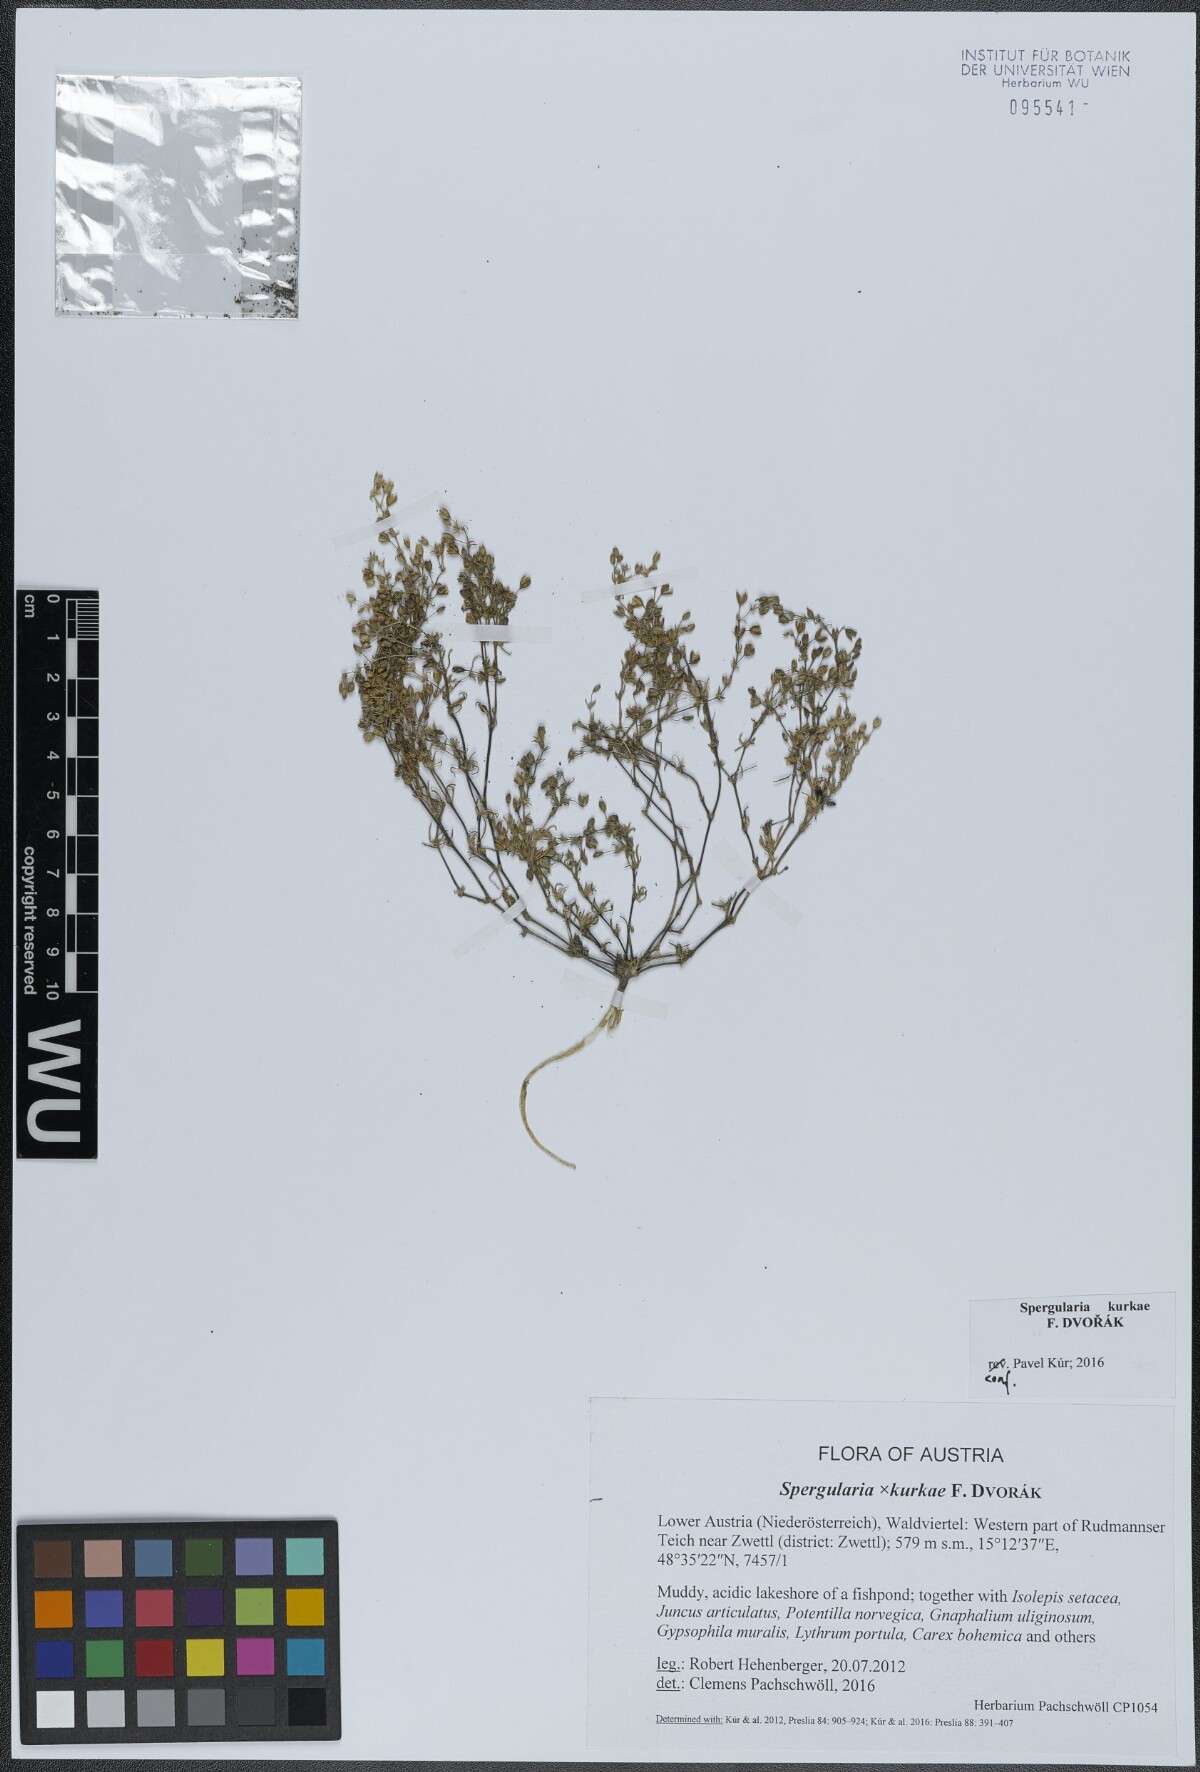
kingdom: Plantae
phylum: Tracheophyta
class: Magnoliopsida
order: Caryophyllales
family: Caryophyllaceae
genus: Spergularia
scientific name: Spergularia kurkae
